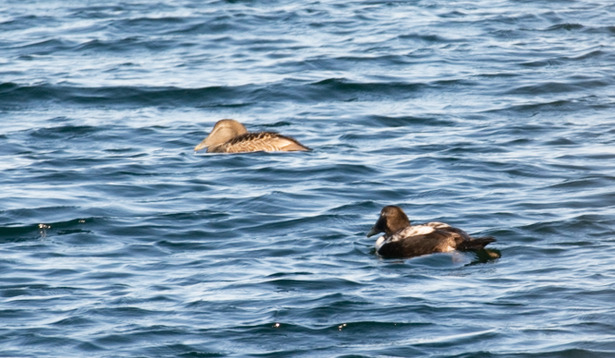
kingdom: Animalia
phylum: Chordata
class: Aves
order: Anseriformes
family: Anatidae
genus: Somateria
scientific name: Somateria mollissima
